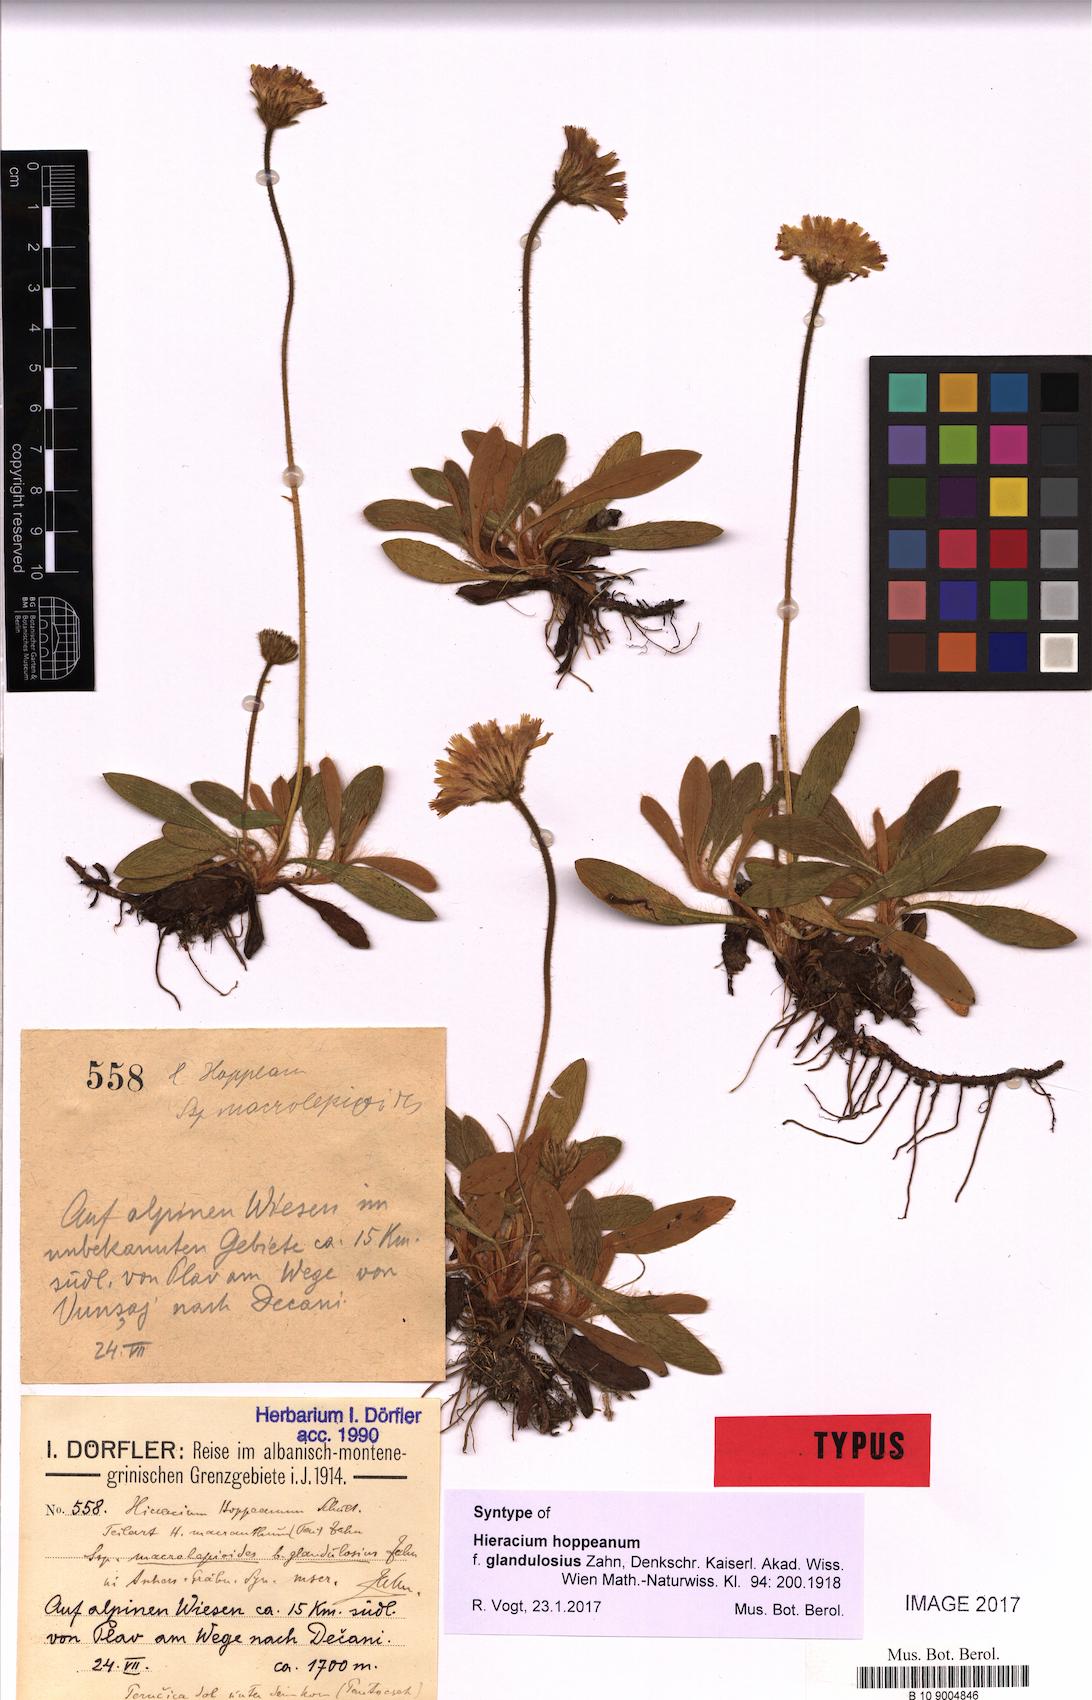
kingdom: Plantae
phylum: Tracheophyta
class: Magnoliopsida
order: Asterales
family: Asteraceae
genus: Pilosella
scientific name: Pilosella leucopsilon
